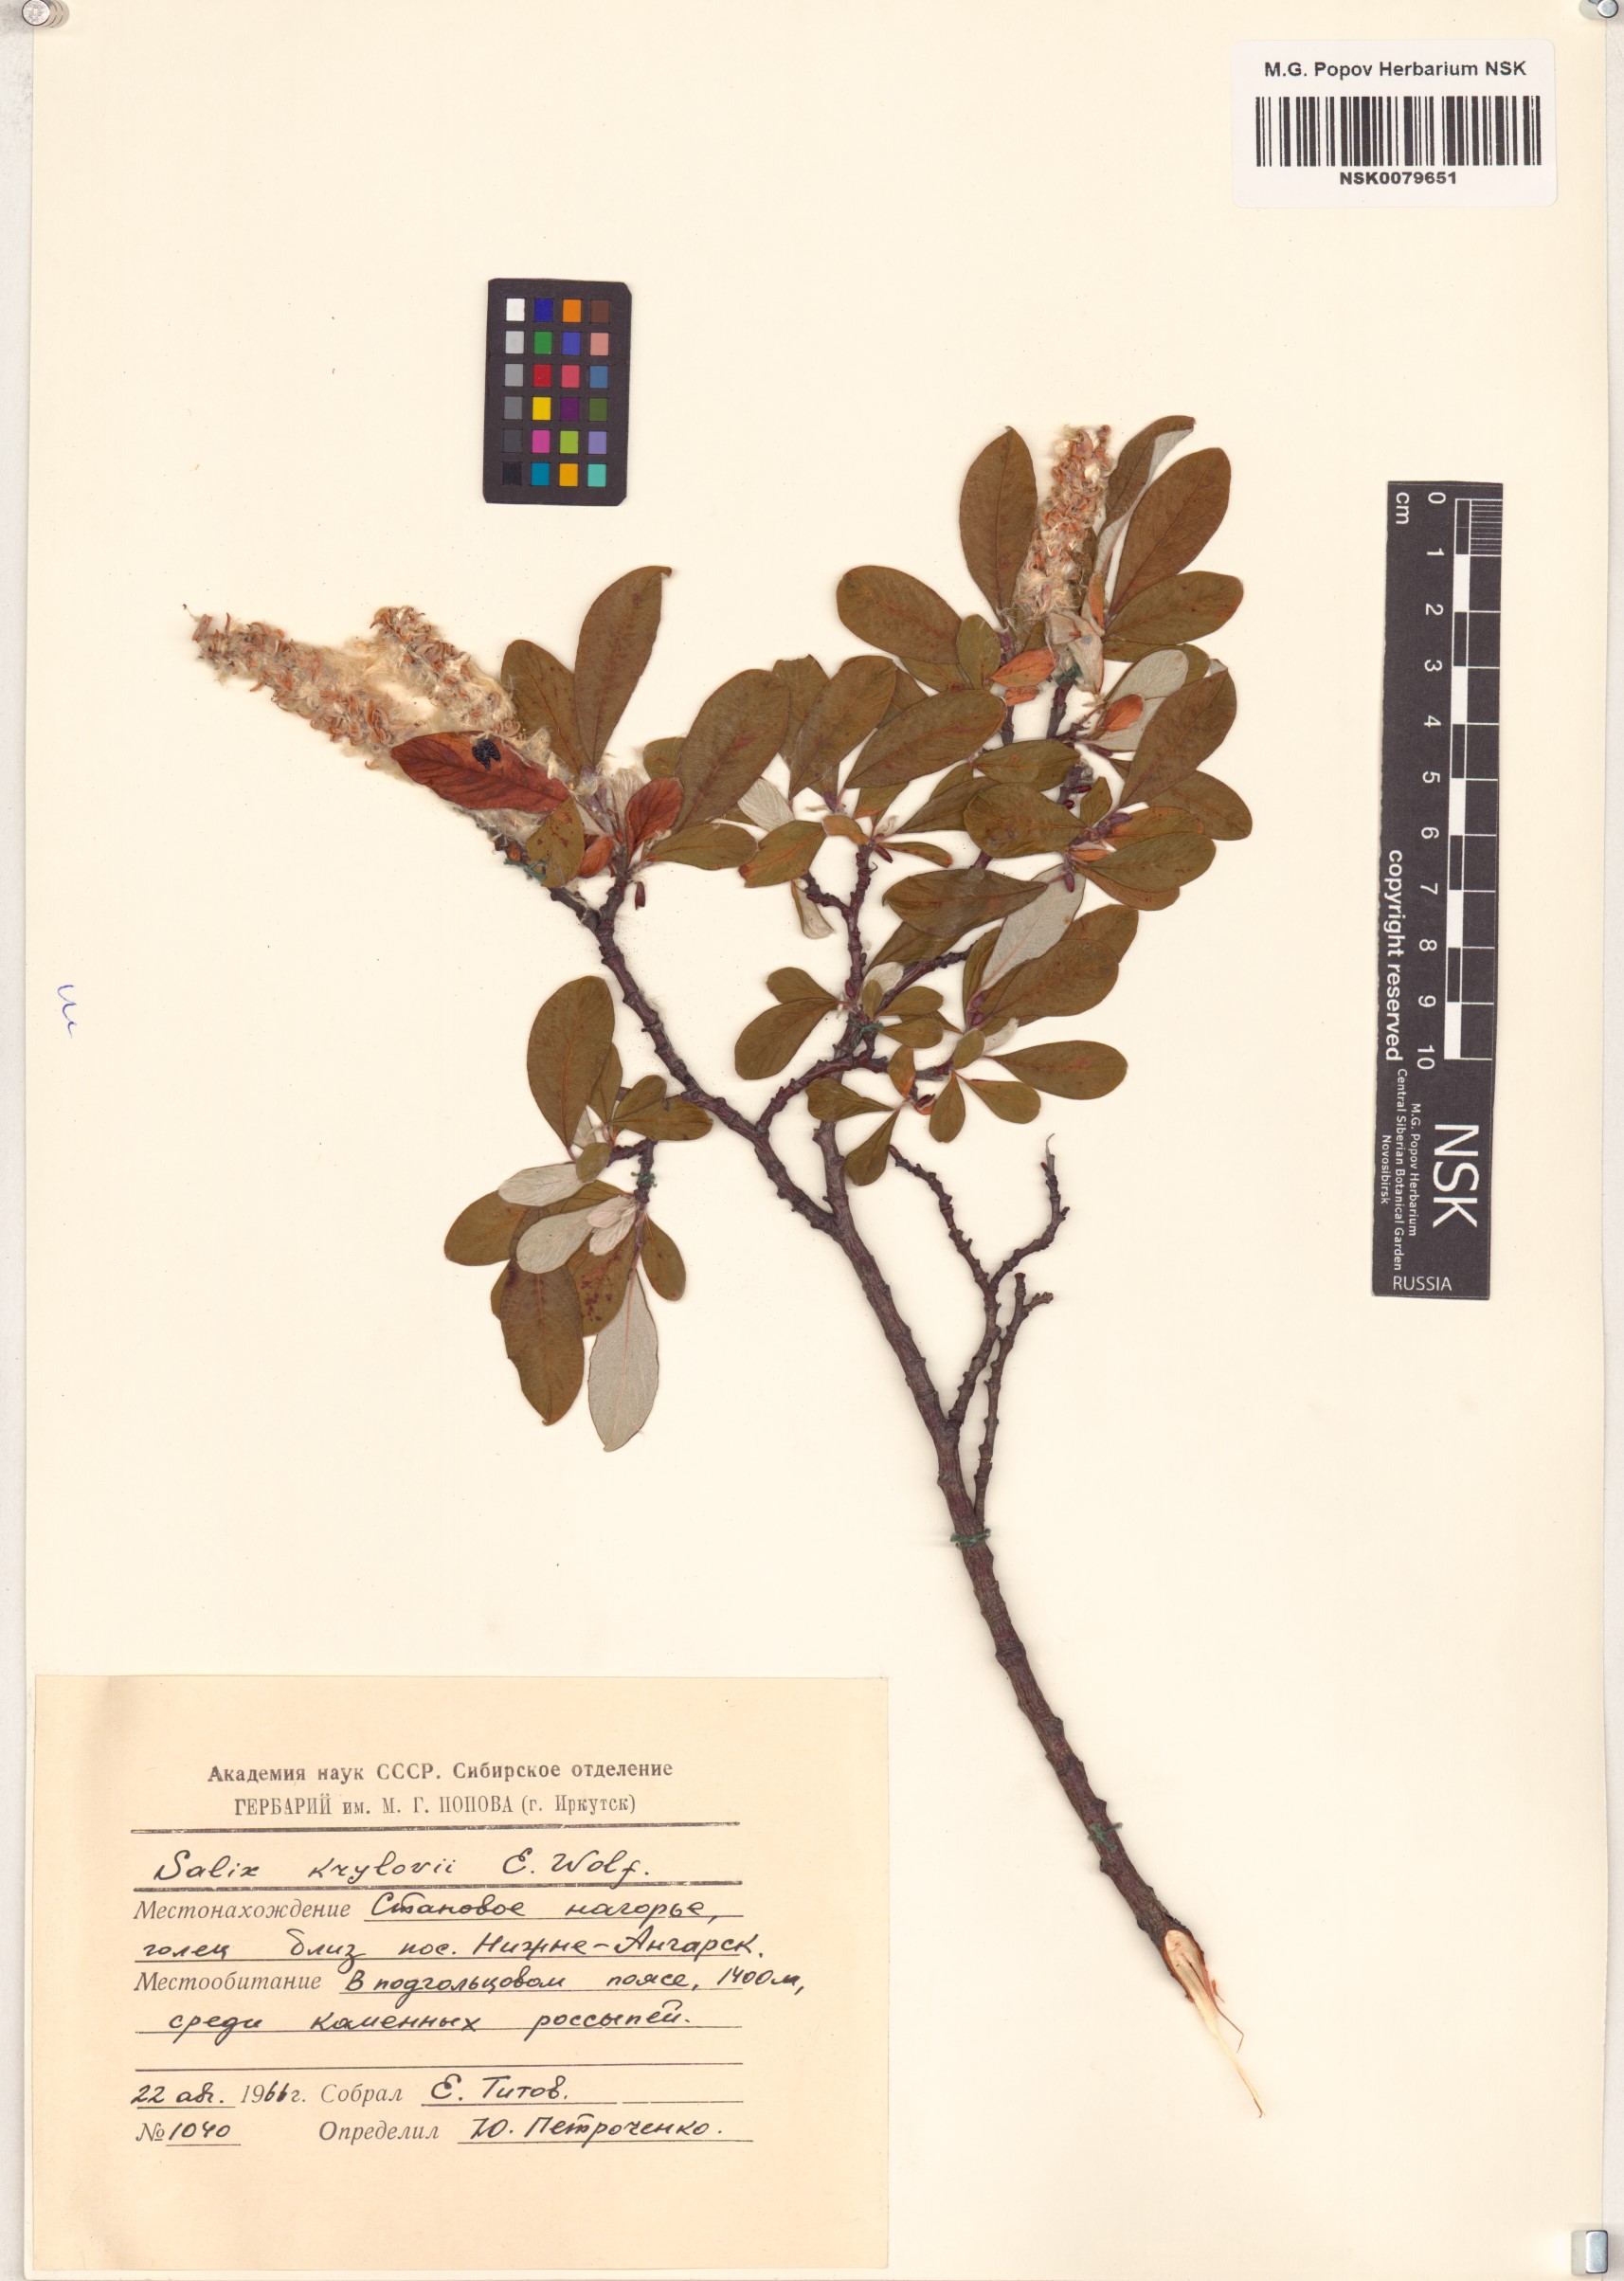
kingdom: Plantae
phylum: Tracheophyta
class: Magnoliopsida
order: Malpighiales
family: Salicaceae
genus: Salix
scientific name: Salix krylovii
